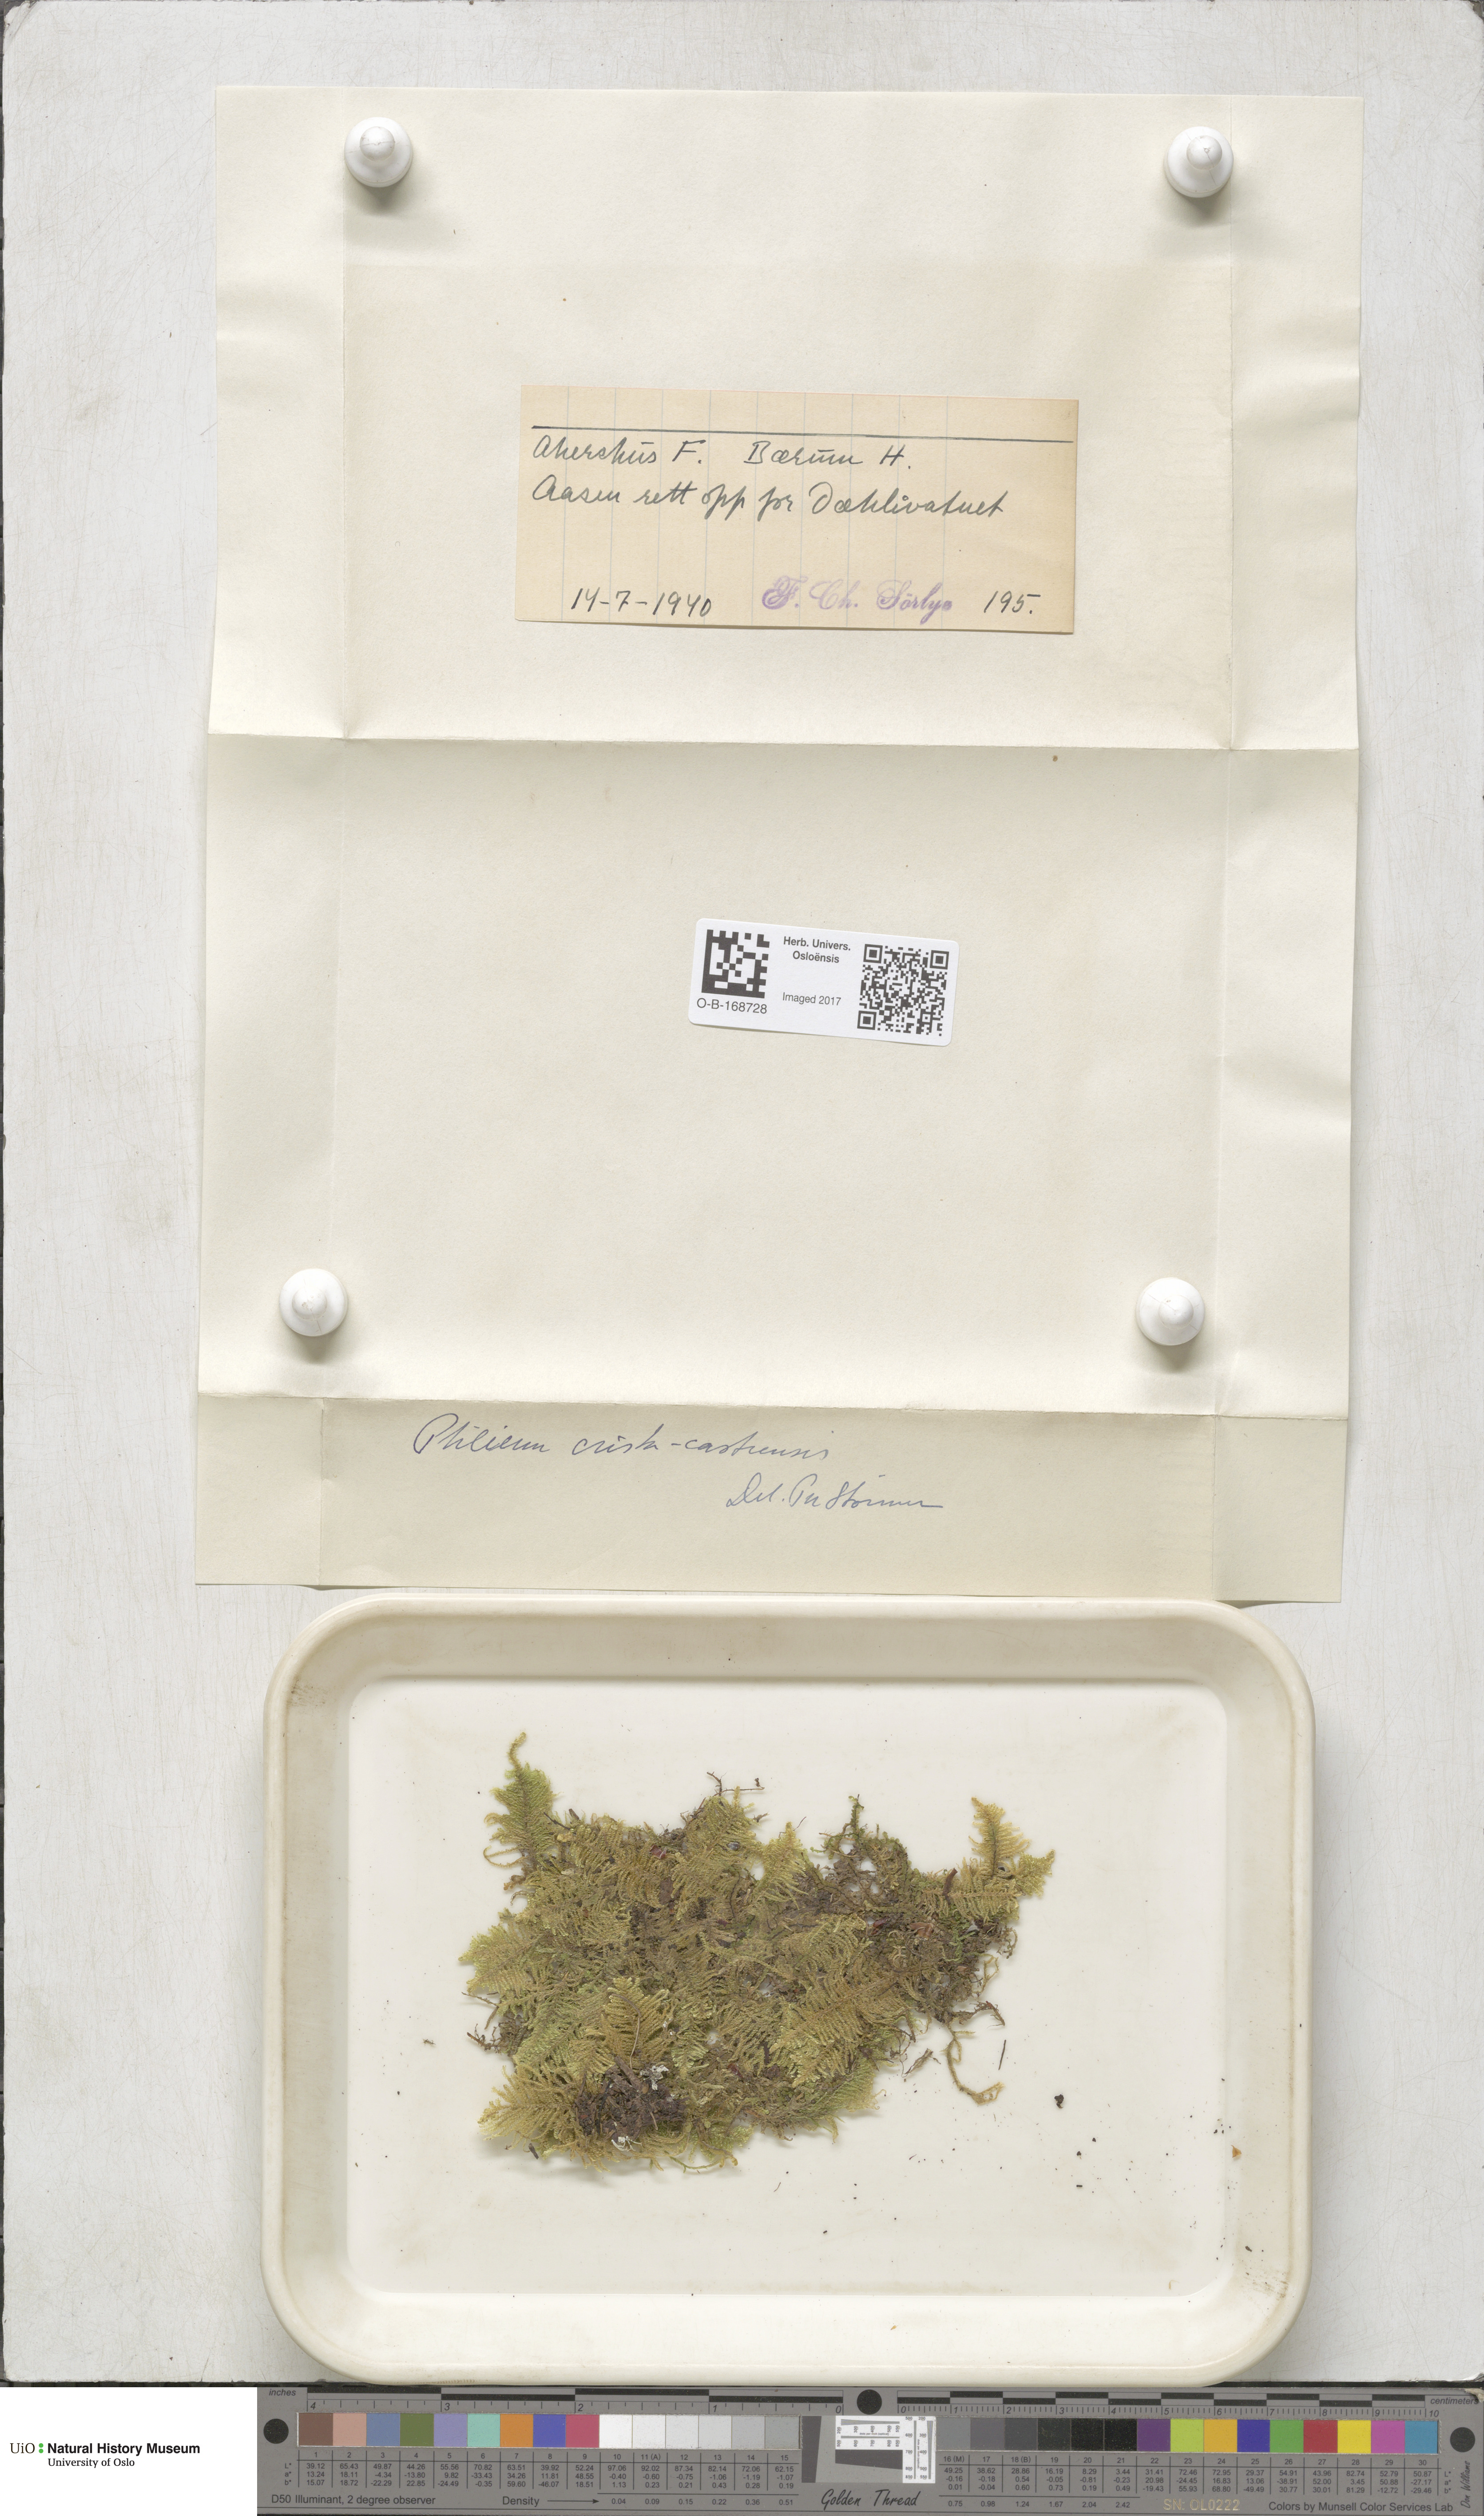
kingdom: Plantae
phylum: Bryophyta
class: Bryopsida
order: Hypnales
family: Pylaisiaceae
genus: Ptilium
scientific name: Ptilium crista-castrensis
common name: Knight's plume moss
